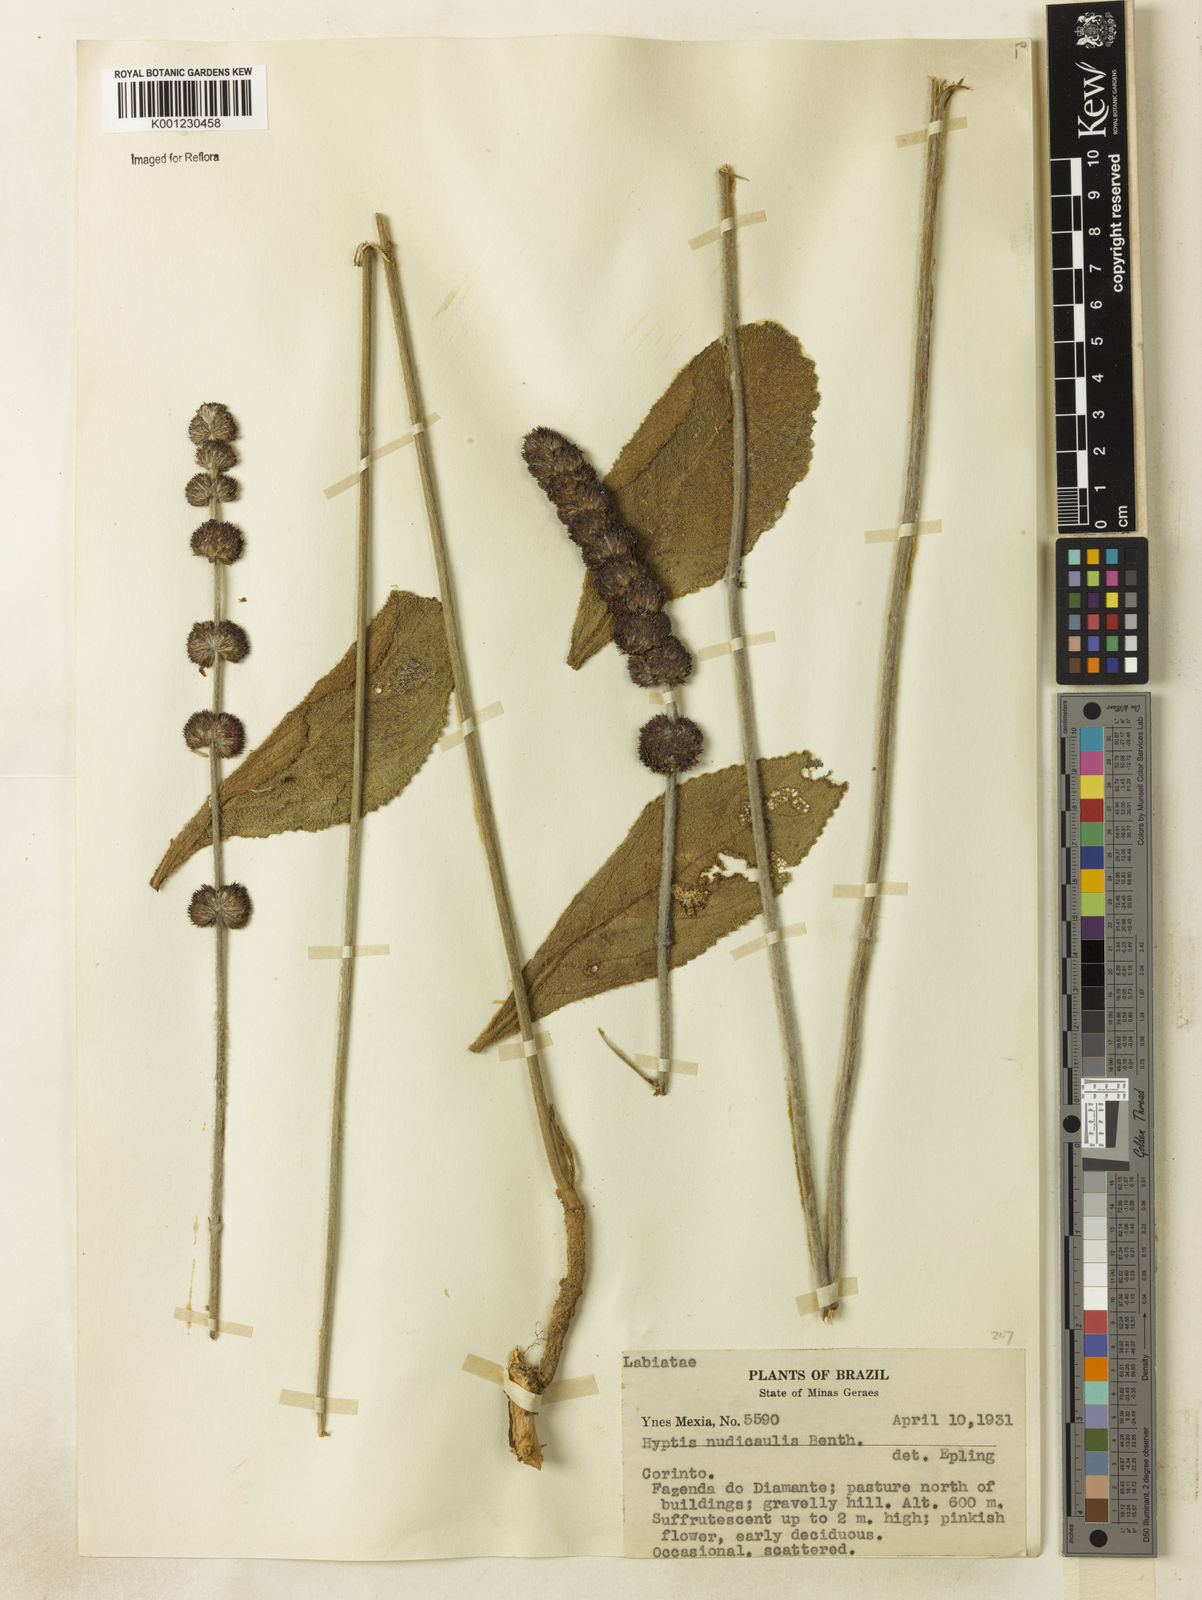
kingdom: Plantae
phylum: Tracheophyta
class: Magnoliopsida
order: Lamiales
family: Lamiaceae
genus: Hyptis
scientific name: Hyptis nudicaulis
